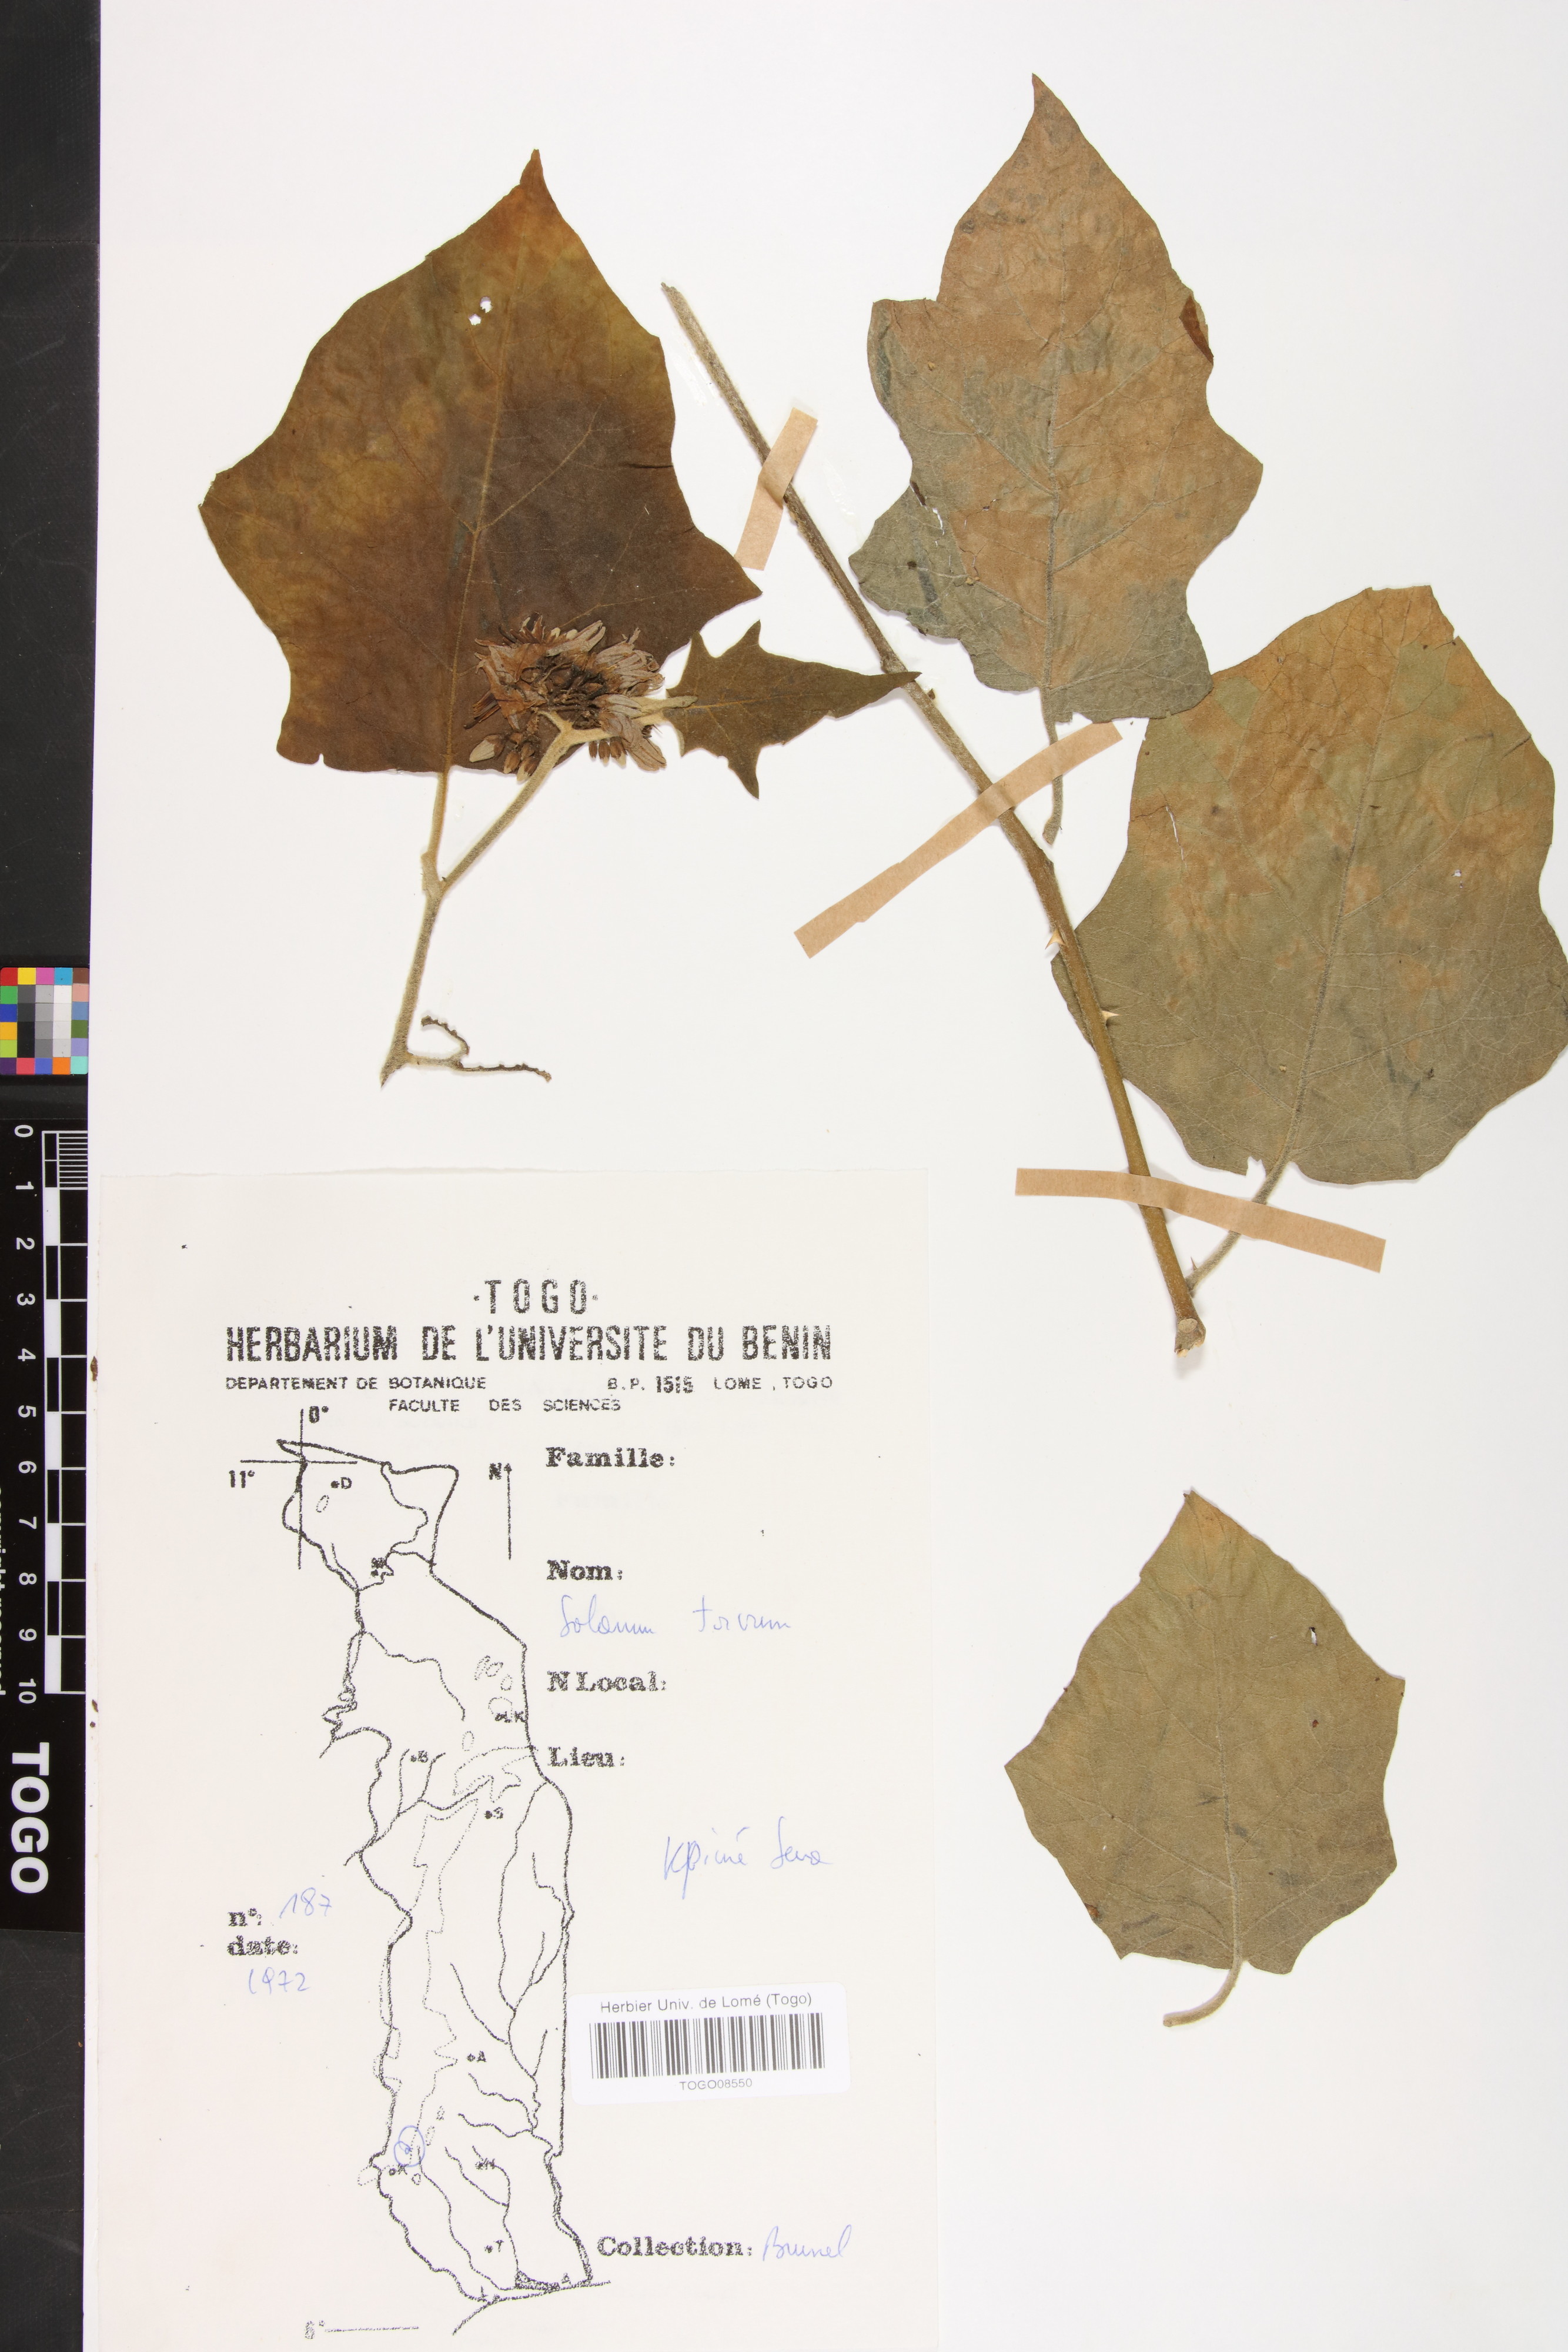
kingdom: Plantae
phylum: Tracheophyta
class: Magnoliopsida
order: Solanales
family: Solanaceae
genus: Solanum
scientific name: Solanum torvum
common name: Turkey berry
